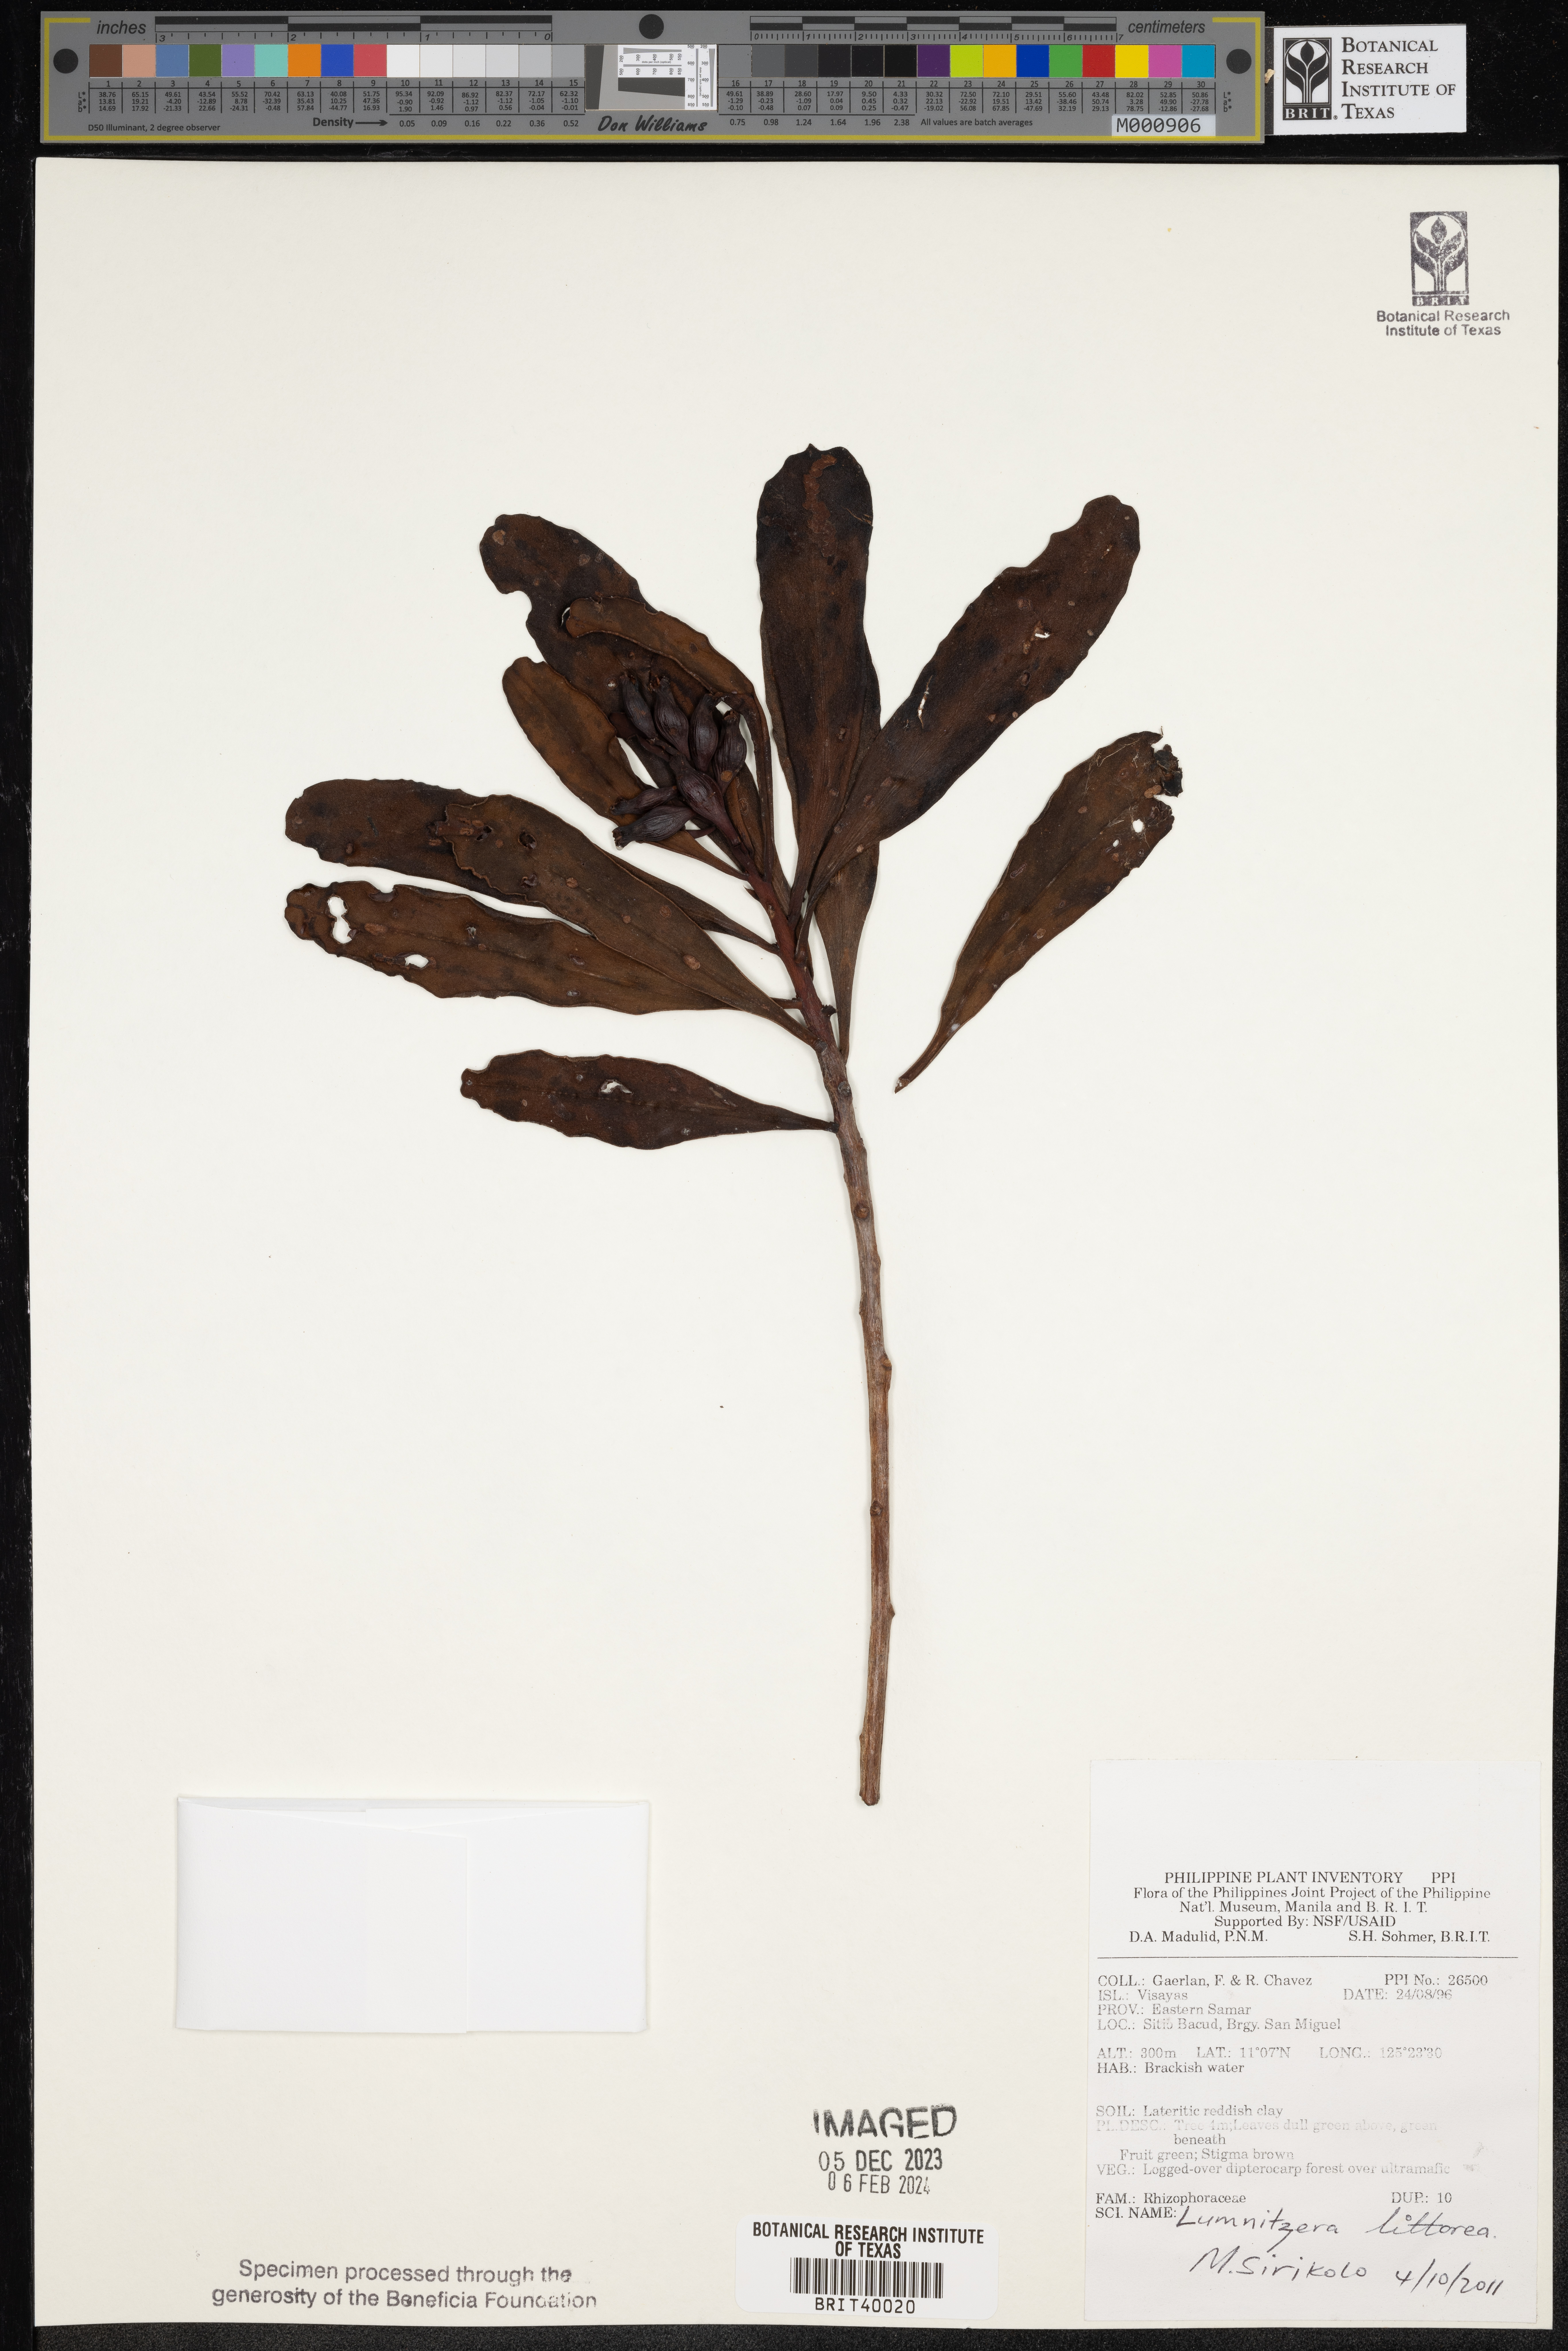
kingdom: Plantae
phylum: Tracheophyta
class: Magnoliopsida
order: Myrtales
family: Combretaceae
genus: Lumnitzera
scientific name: Lumnitzera littorea
